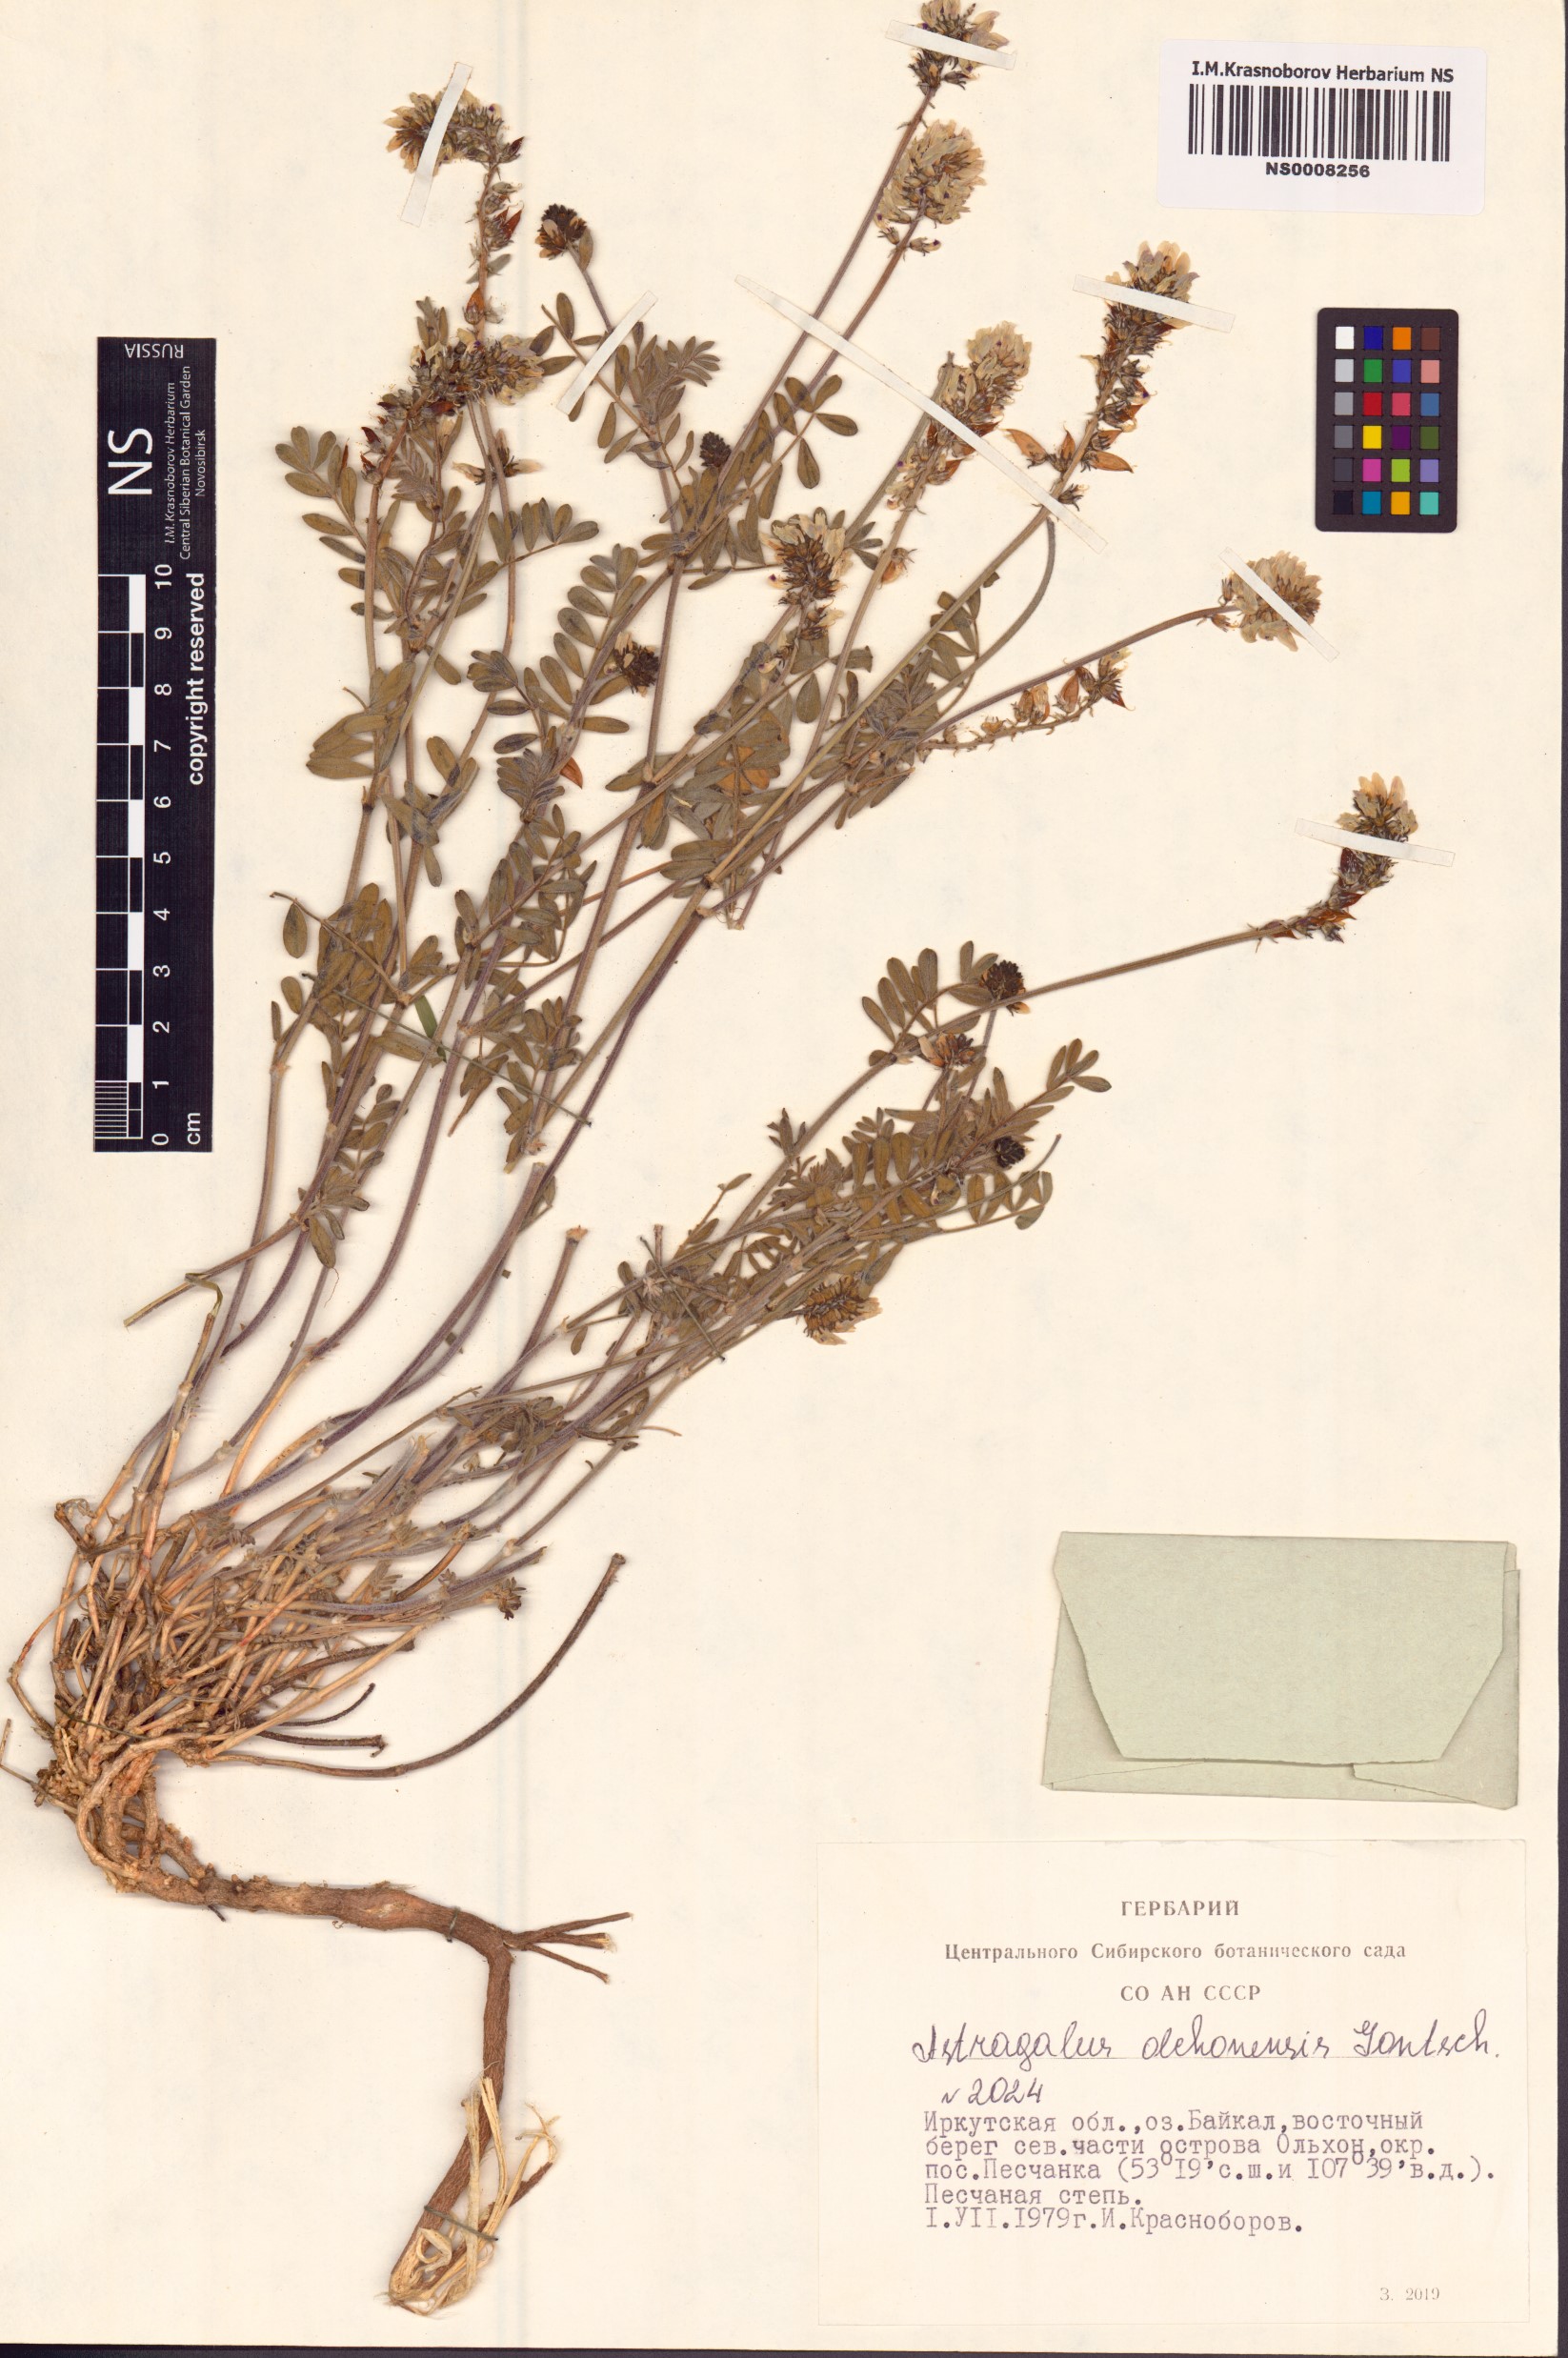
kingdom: Plantae
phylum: Tracheophyta
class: Magnoliopsida
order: Fabales
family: Fabaceae
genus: Astragalus
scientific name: Astragalus olchonensis
